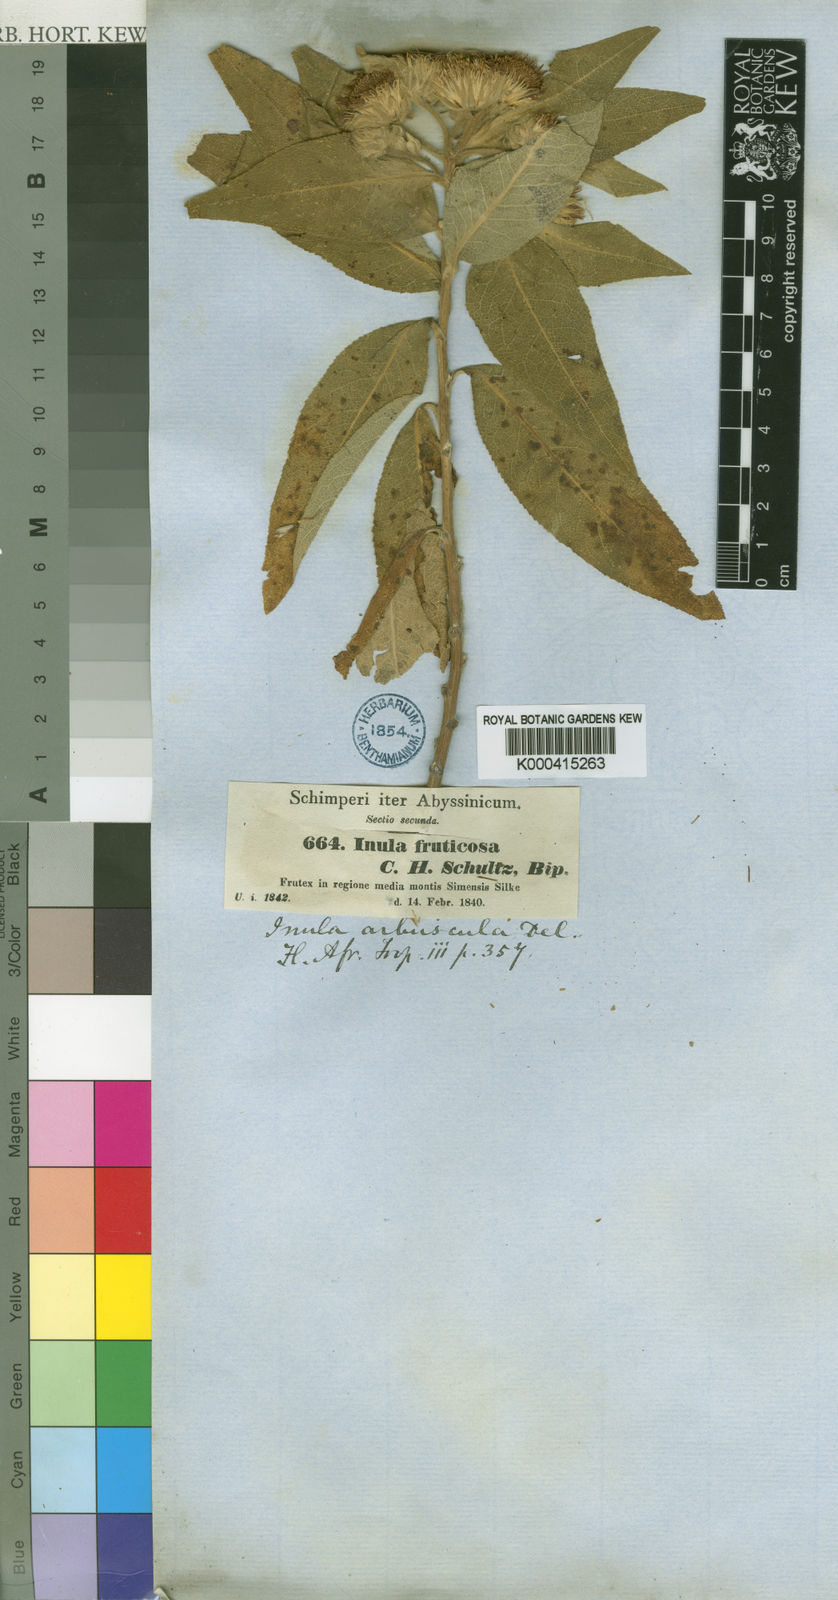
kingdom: Plantae
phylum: Tracheophyta
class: Magnoliopsida
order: Asterales
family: Asteraceae
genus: Inula
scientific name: Inula arbuscula
